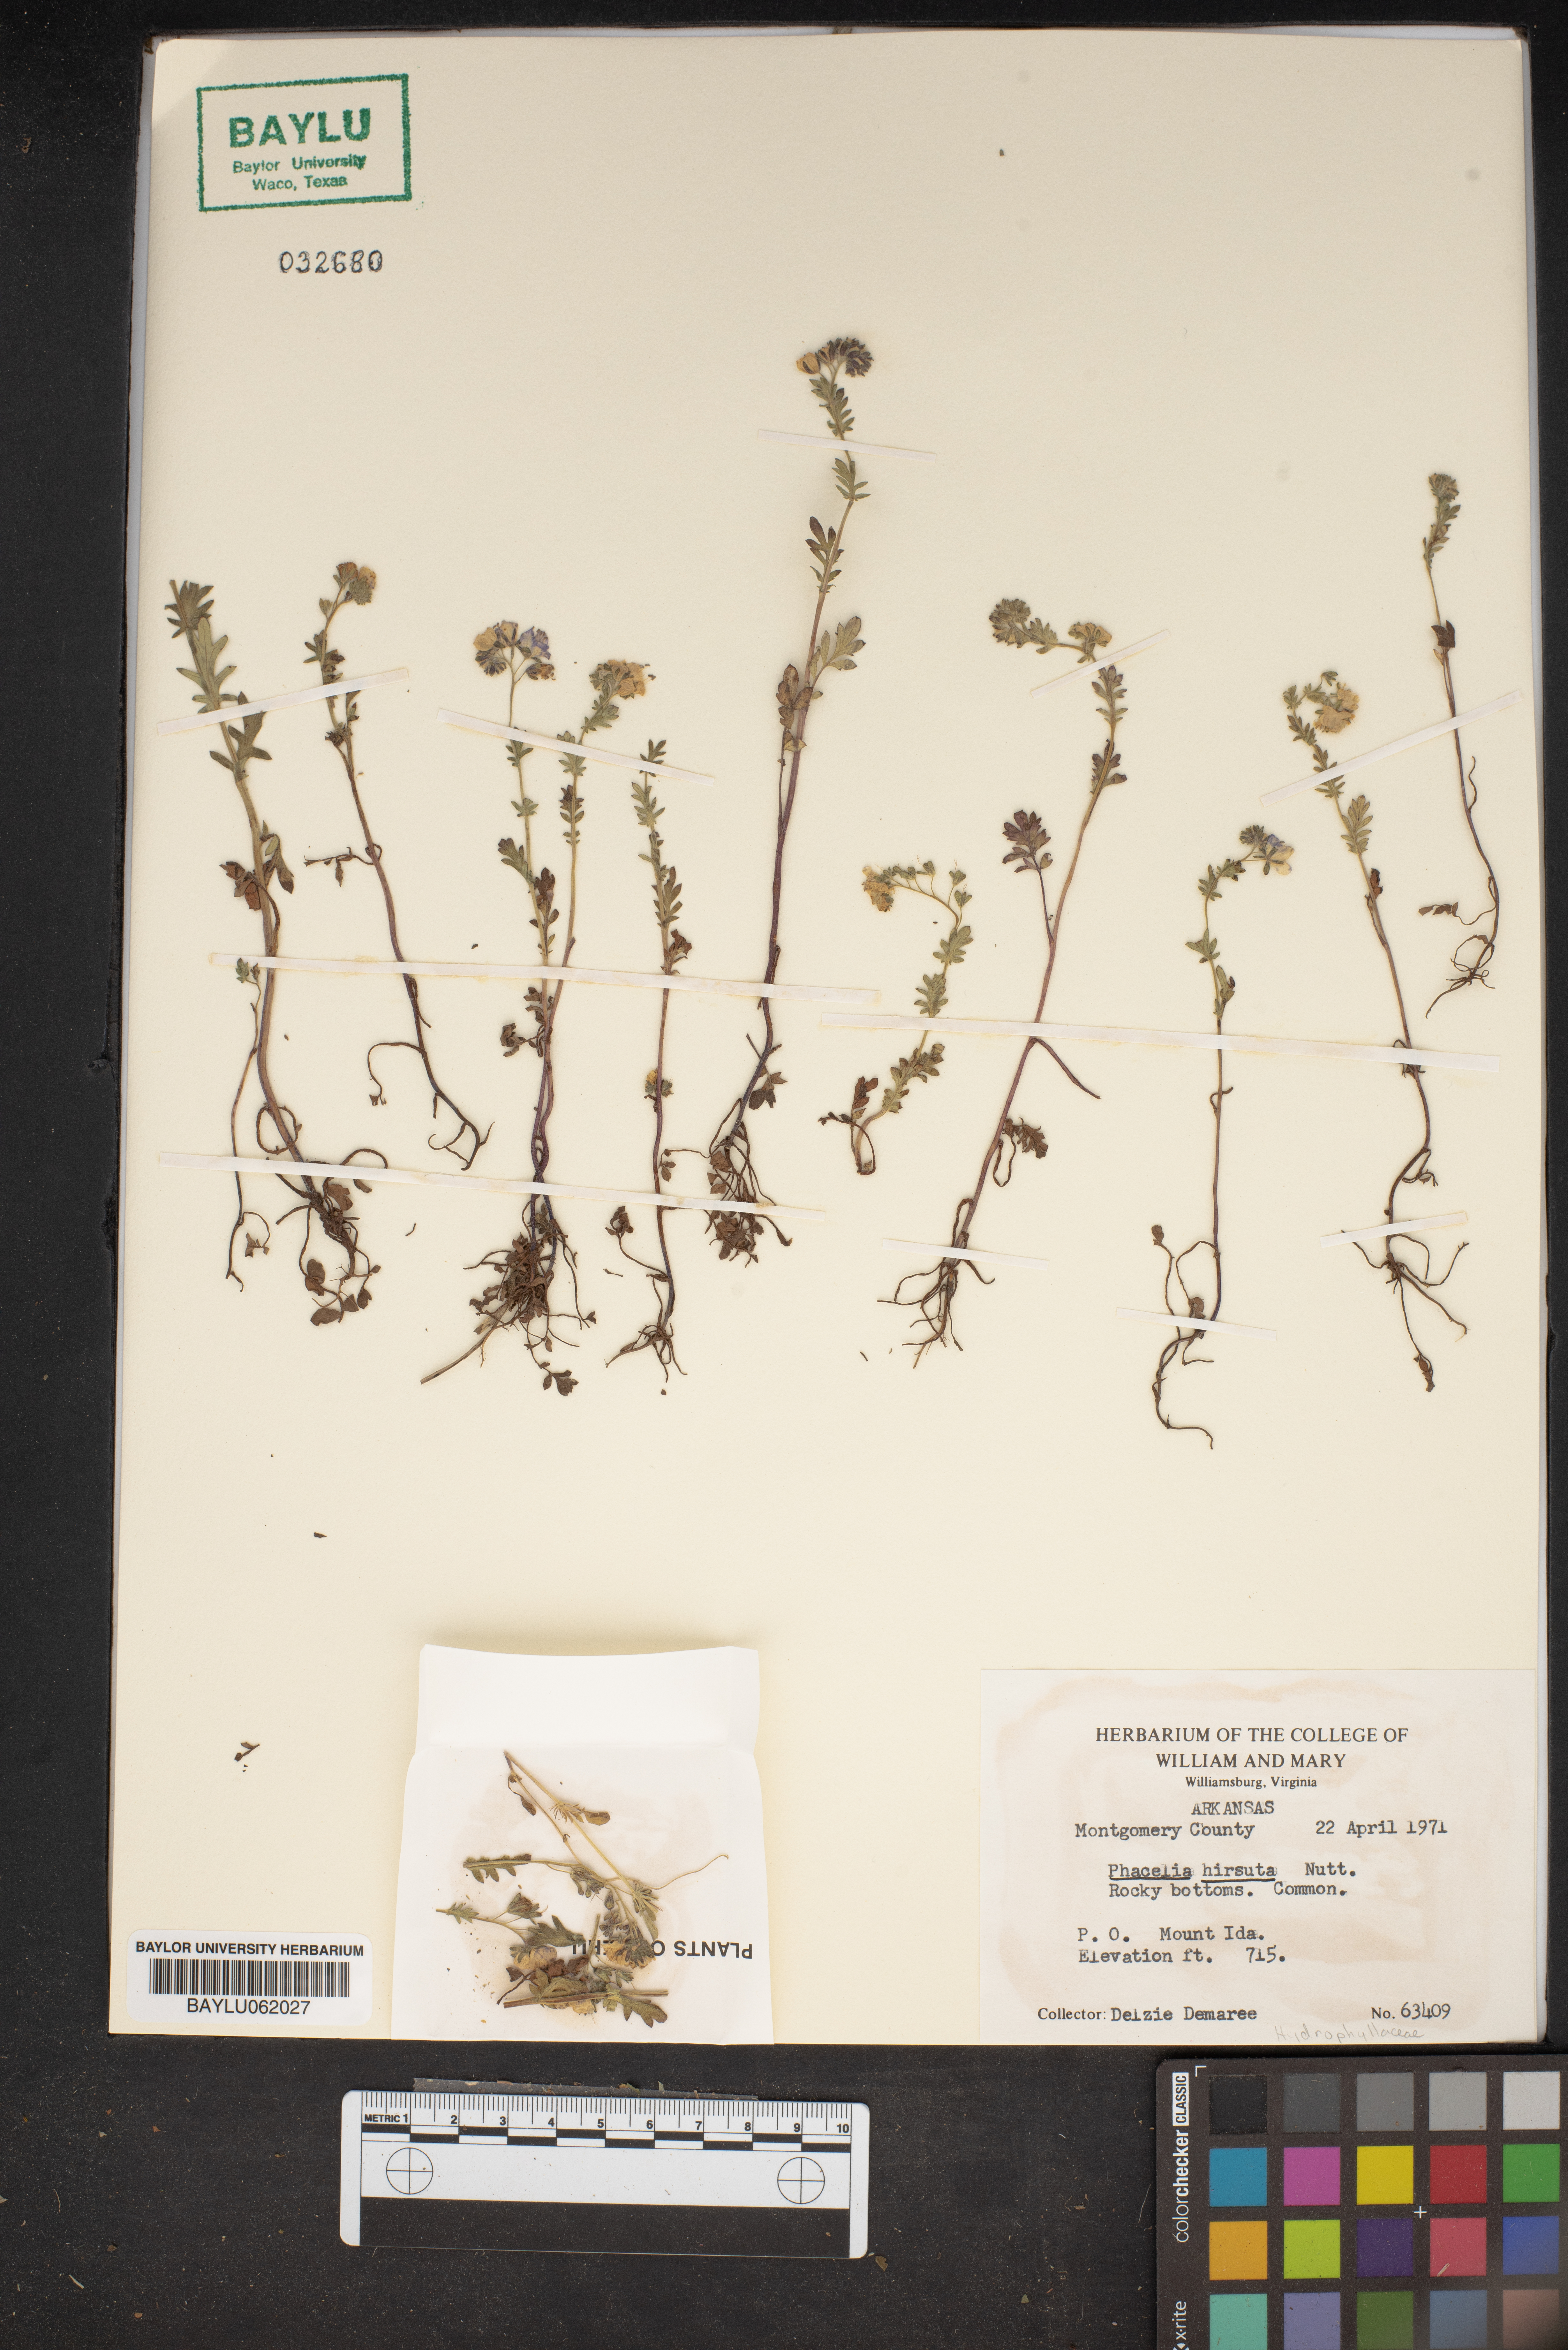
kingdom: Plantae
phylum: Tracheophyta
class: Magnoliopsida
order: Boraginales
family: Hydrophyllaceae
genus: Phacelia
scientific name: Phacelia hirsuta
